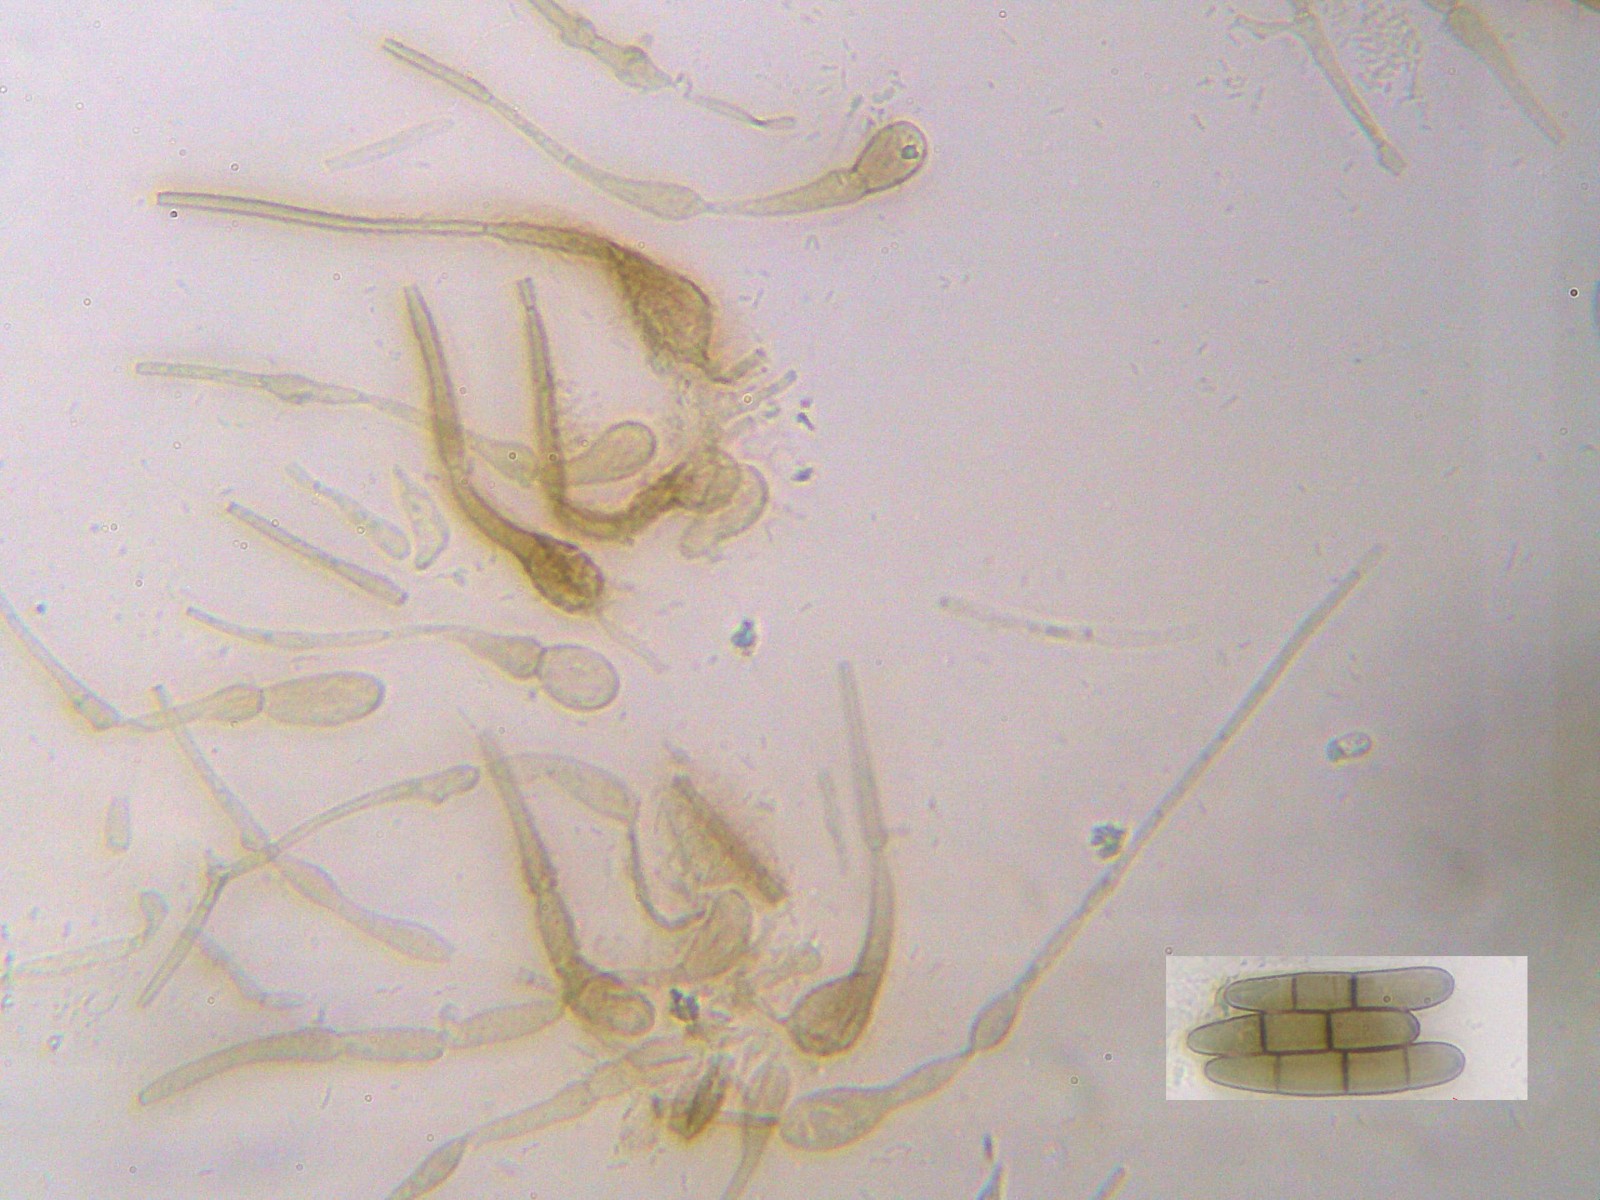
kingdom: Fungi
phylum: Ascomycota
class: Geoglossomycetes
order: Geoglossales
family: Geoglossaceae
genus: Glutinoglossum
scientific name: Glutinoglossum glutinosum
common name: slimet jordtunge
